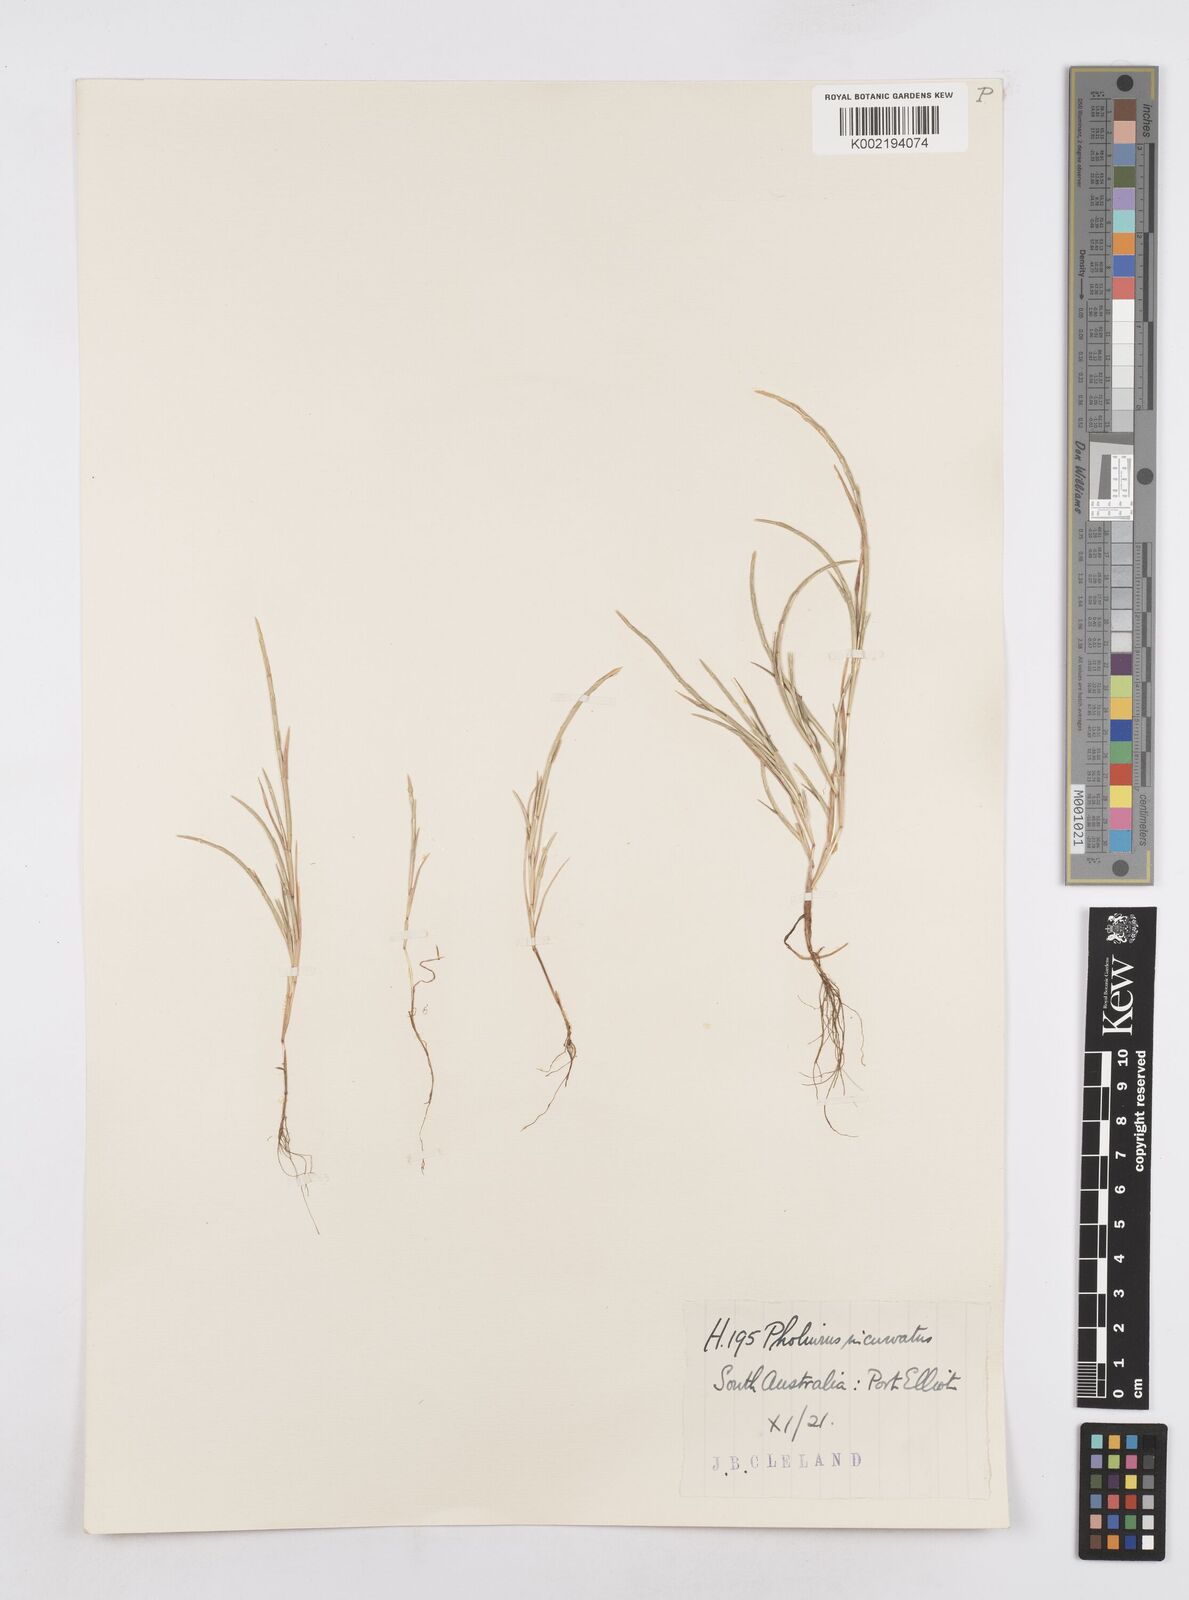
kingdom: Plantae
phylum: Tracheophyta
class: Liliopsida
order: Poales
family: Poaceae
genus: Parapholis
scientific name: Parapholis incurva
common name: Curved sicklegrass
